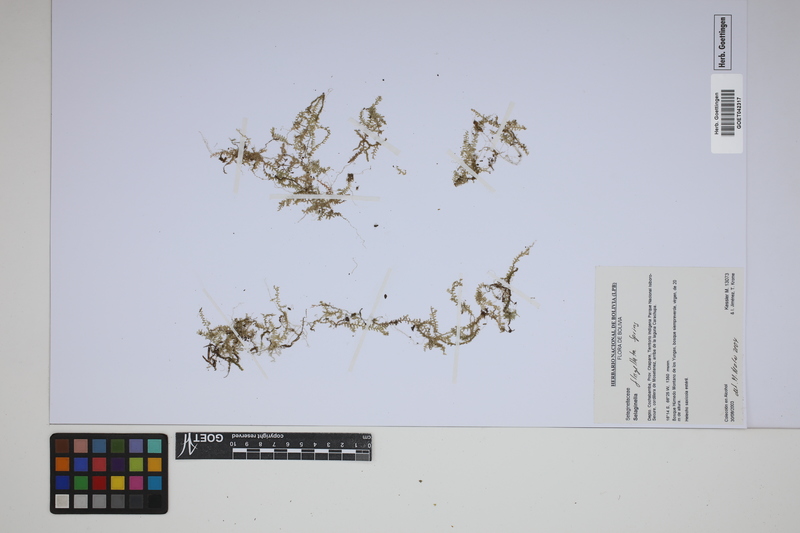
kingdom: Plantae
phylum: Tracheophyta
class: Lycopodiopsida
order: Selaginellales
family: Selaginellaceae
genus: Selaginella
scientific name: Selaginella flagellata
